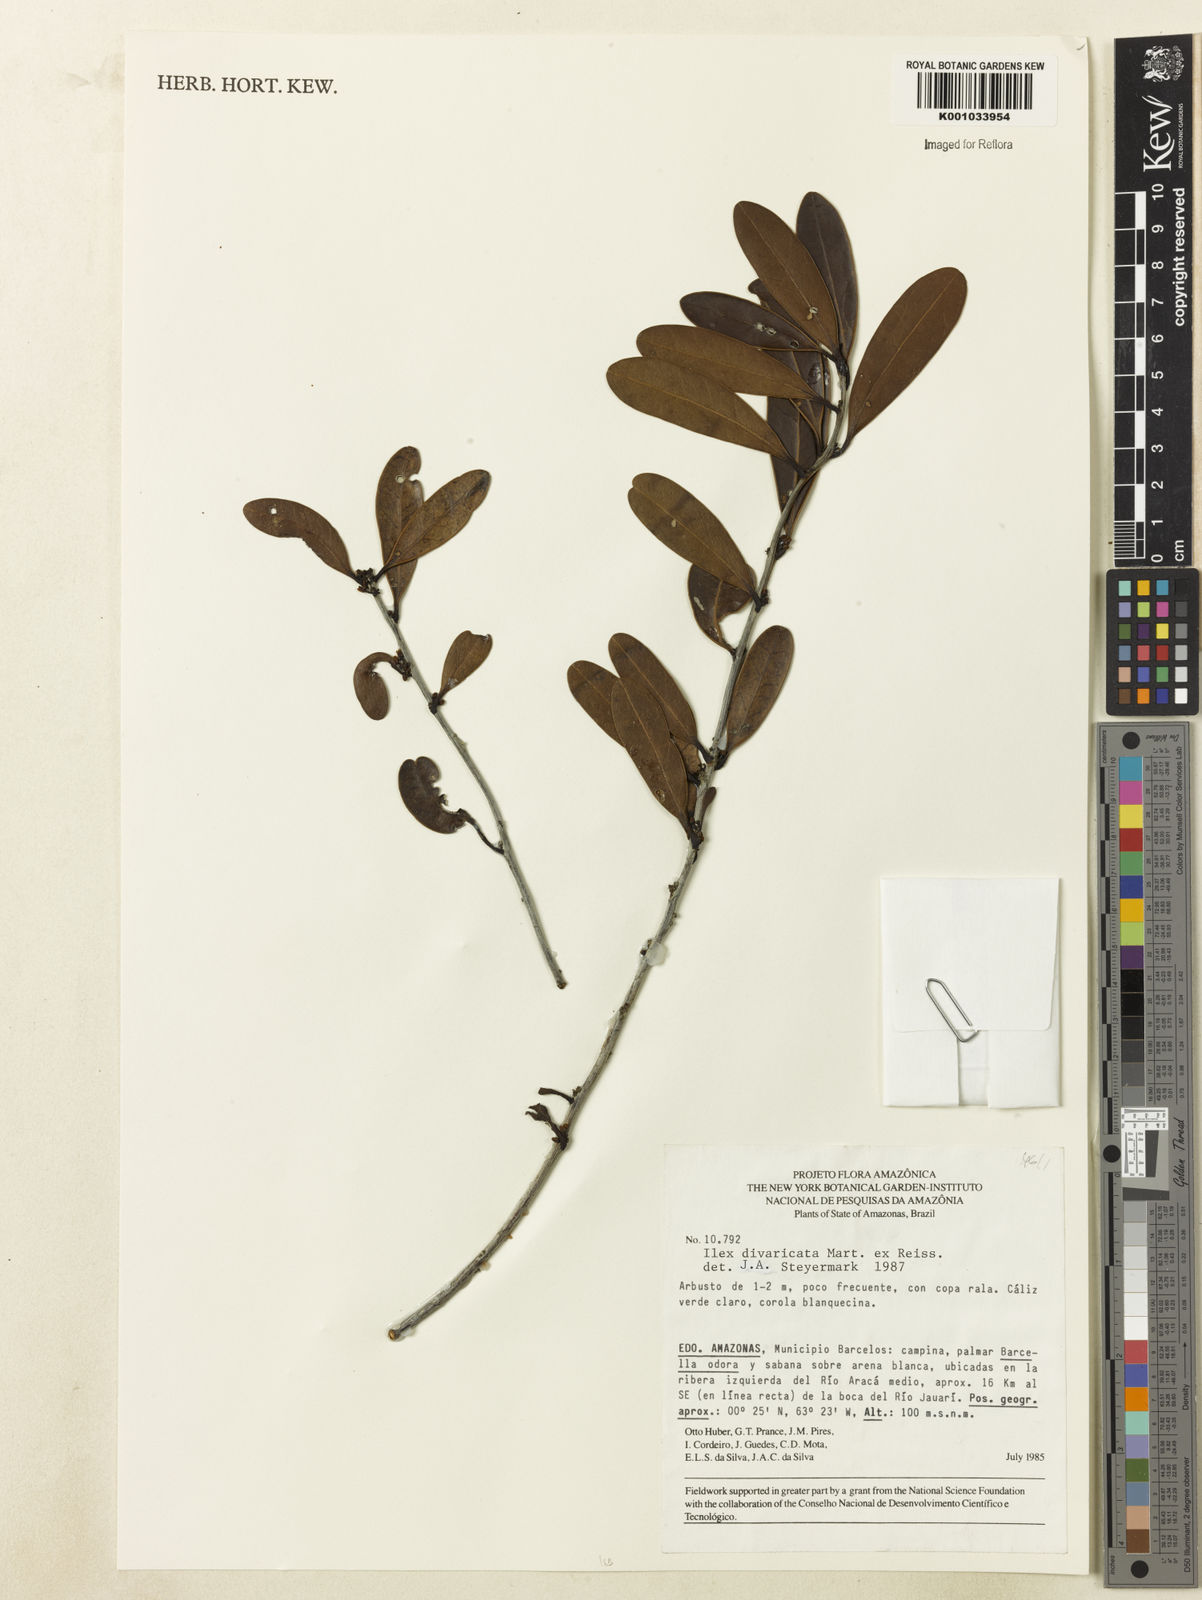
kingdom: Plantae
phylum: Tracheophyta
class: Magnoliopsida
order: Aquifoliales
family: Aquifoliaceae
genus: Ilex
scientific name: Ilex divaricata
